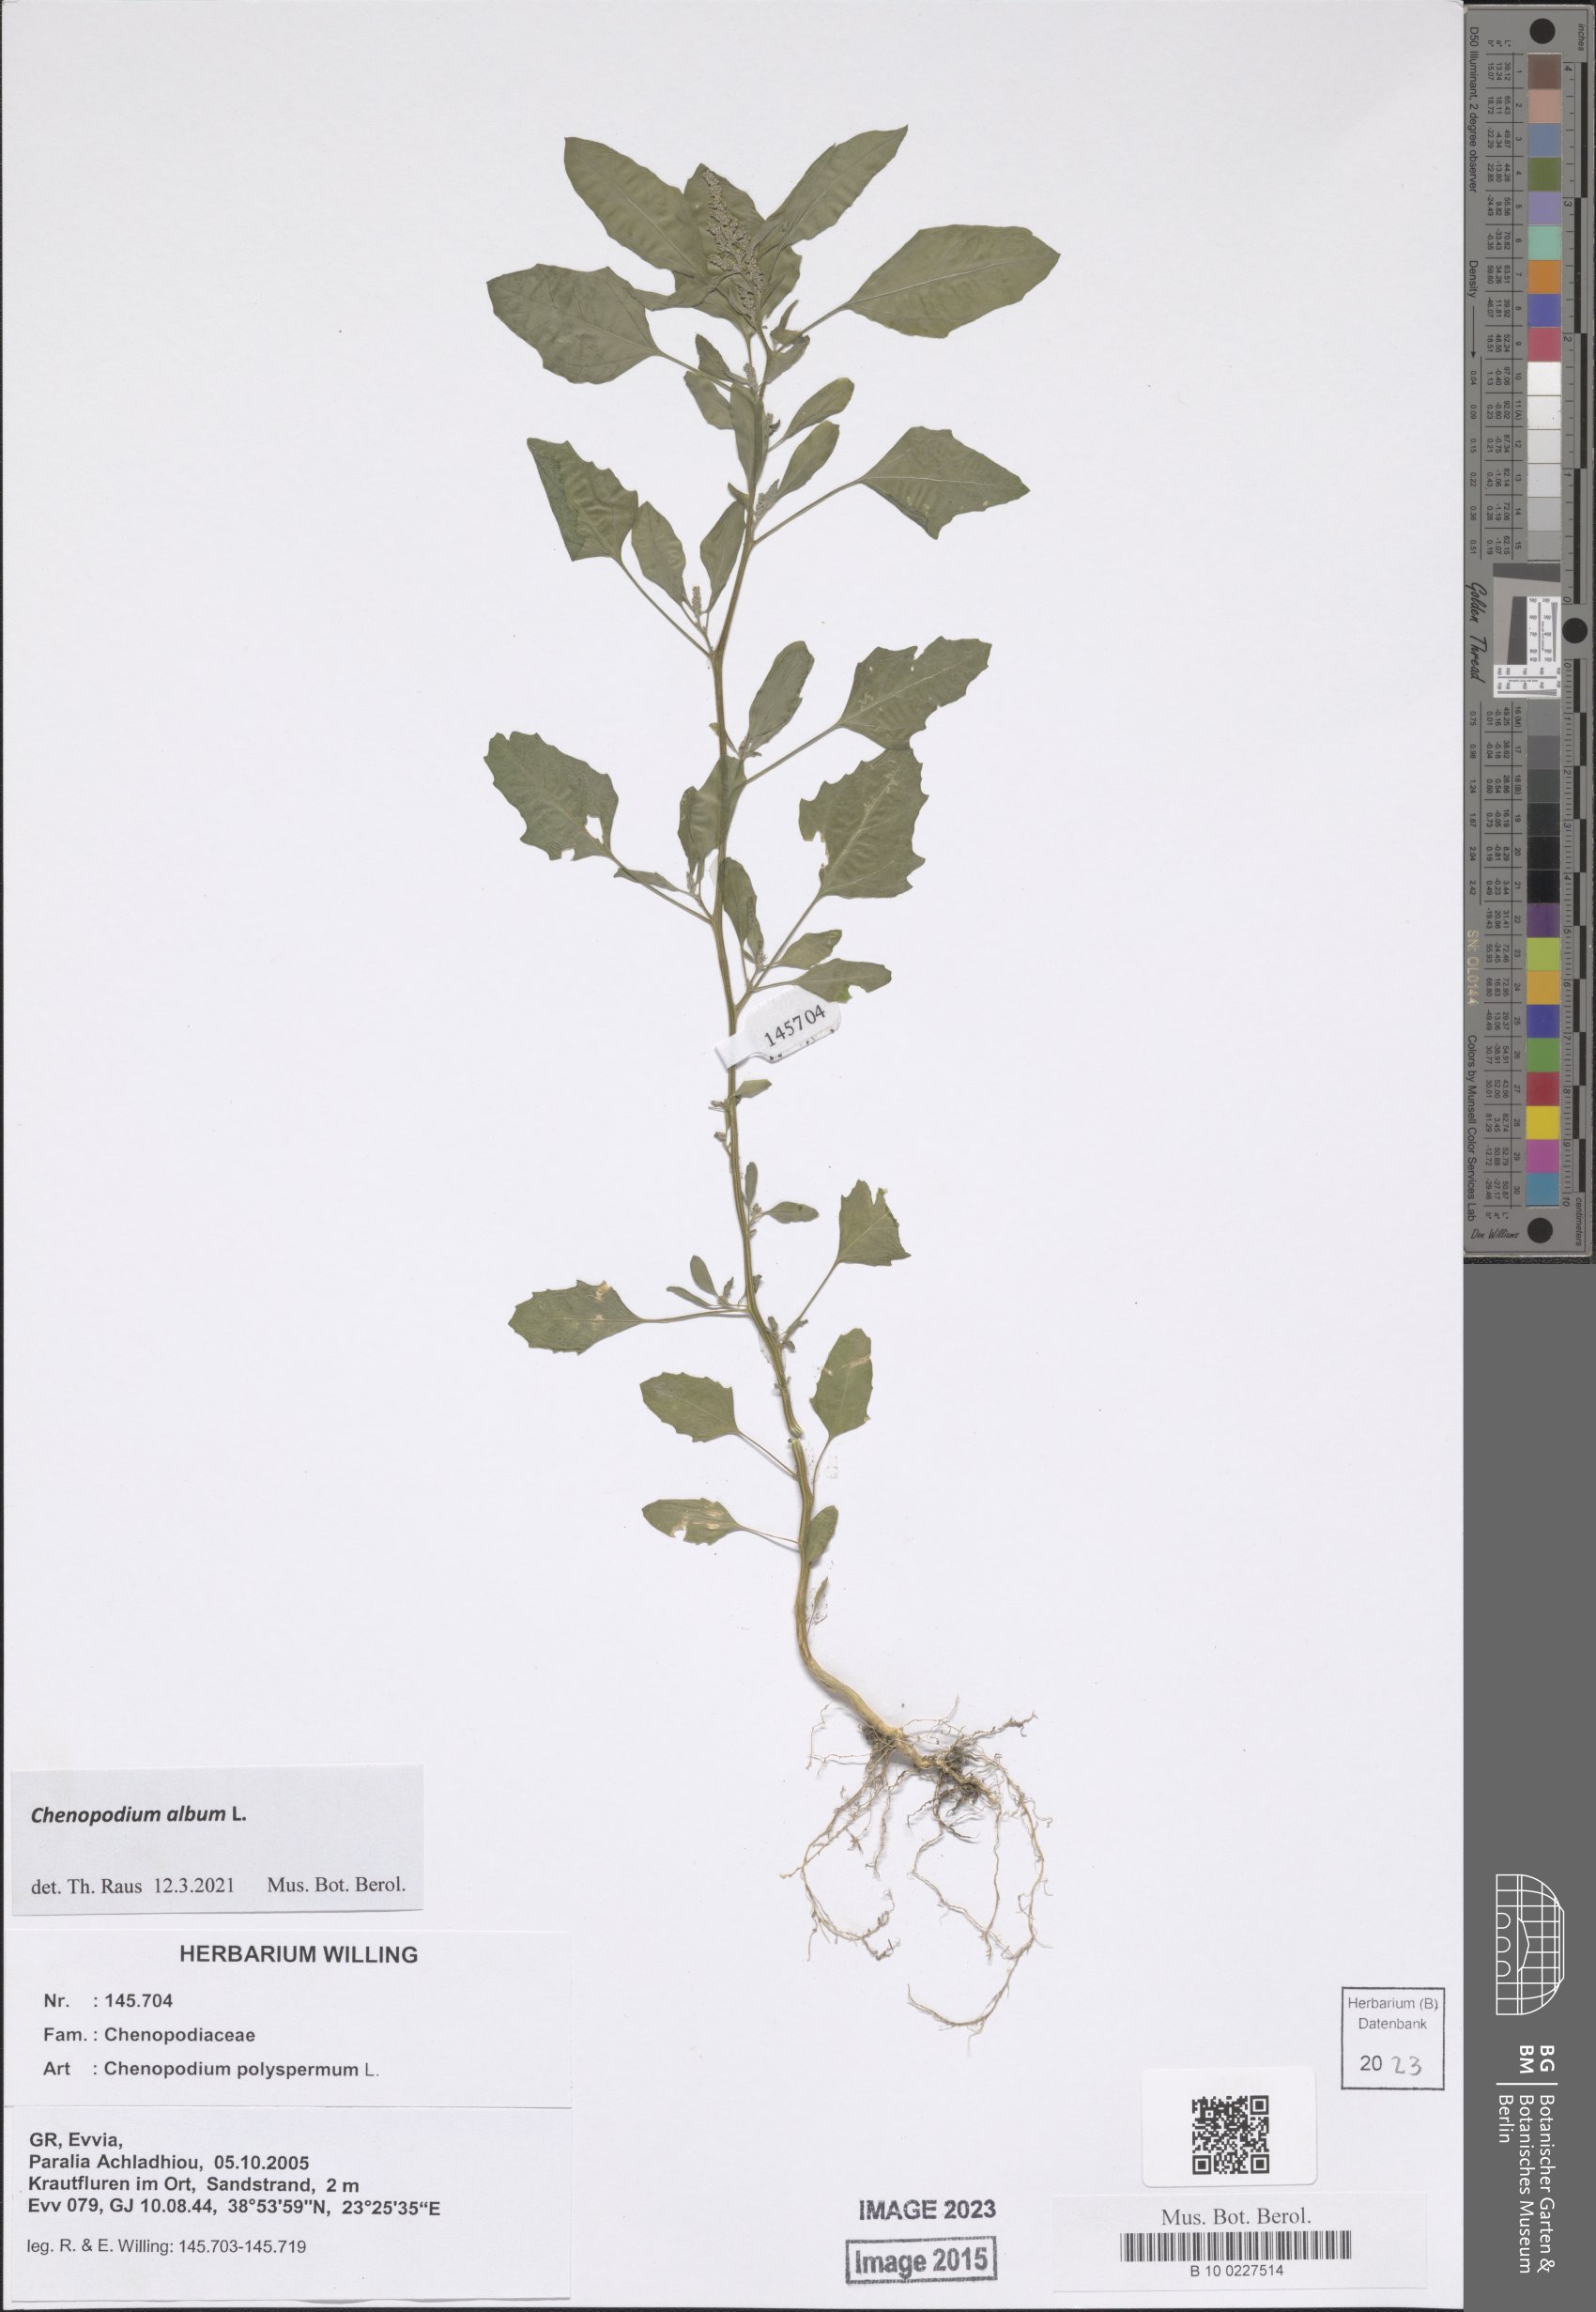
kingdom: Plantae
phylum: Tracheophyta
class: Magnoliopsida
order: Caryophyllales
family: Amaranthaceae
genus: Chenopodium
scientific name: Chenopodium album
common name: Fat-hen
